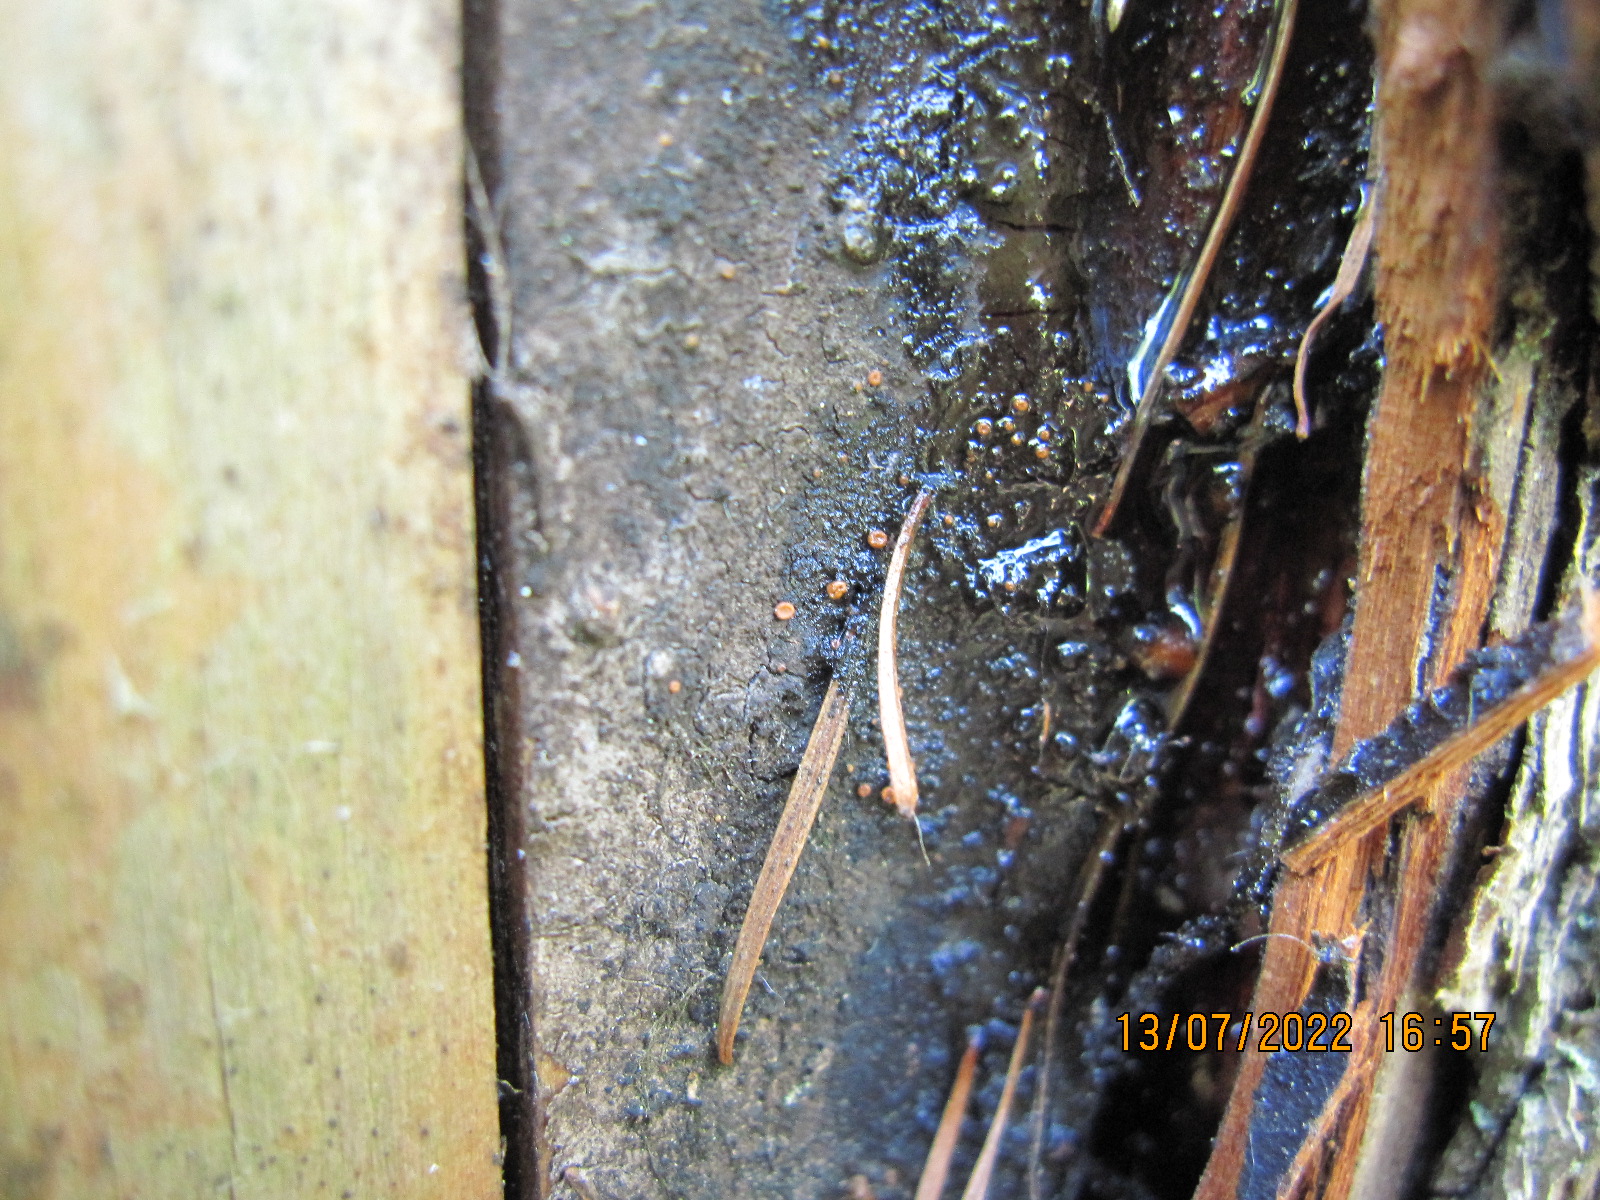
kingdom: Fungi
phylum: Ascomycota
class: Sareomycetes
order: Sareales
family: Sareaceae
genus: Sarea
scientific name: Sarea resinae
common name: orangegul harpiksskive
